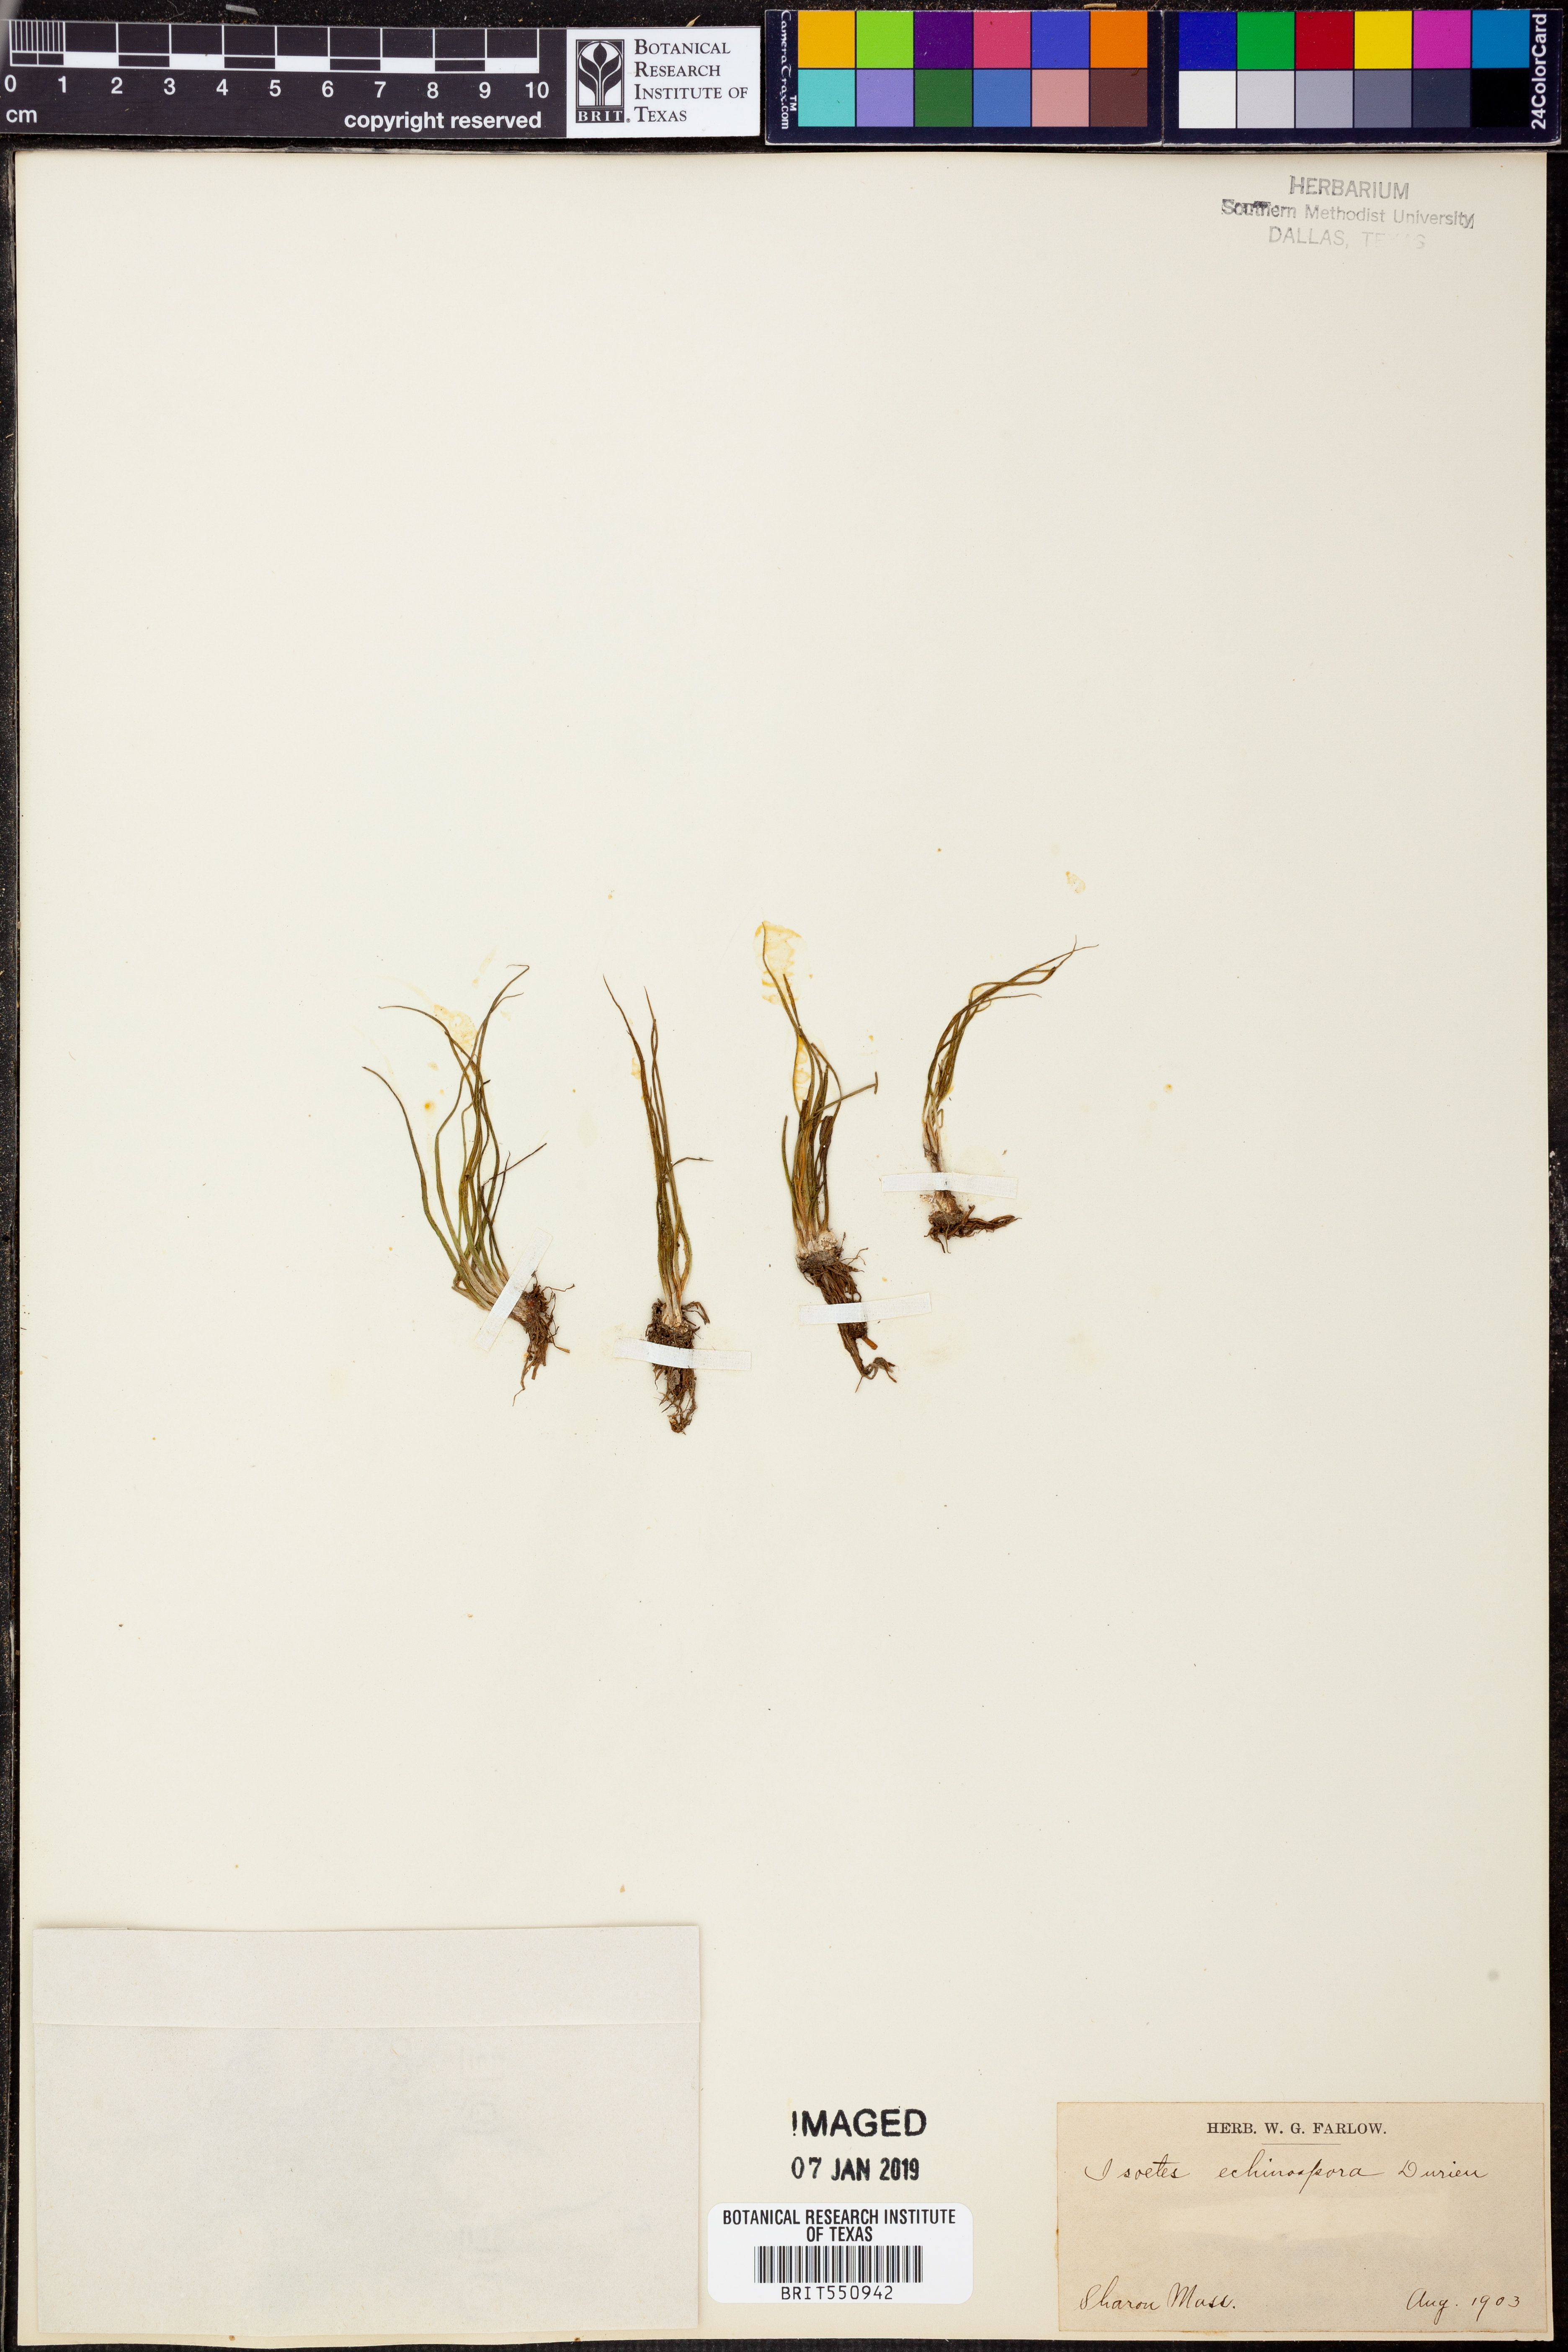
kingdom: Plantae
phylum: Tracheophyta
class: Lycopodiopsida
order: Isoetales
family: Isoetaceae
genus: Isoetes
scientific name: Isoetes echinospora
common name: Spring quillwort
